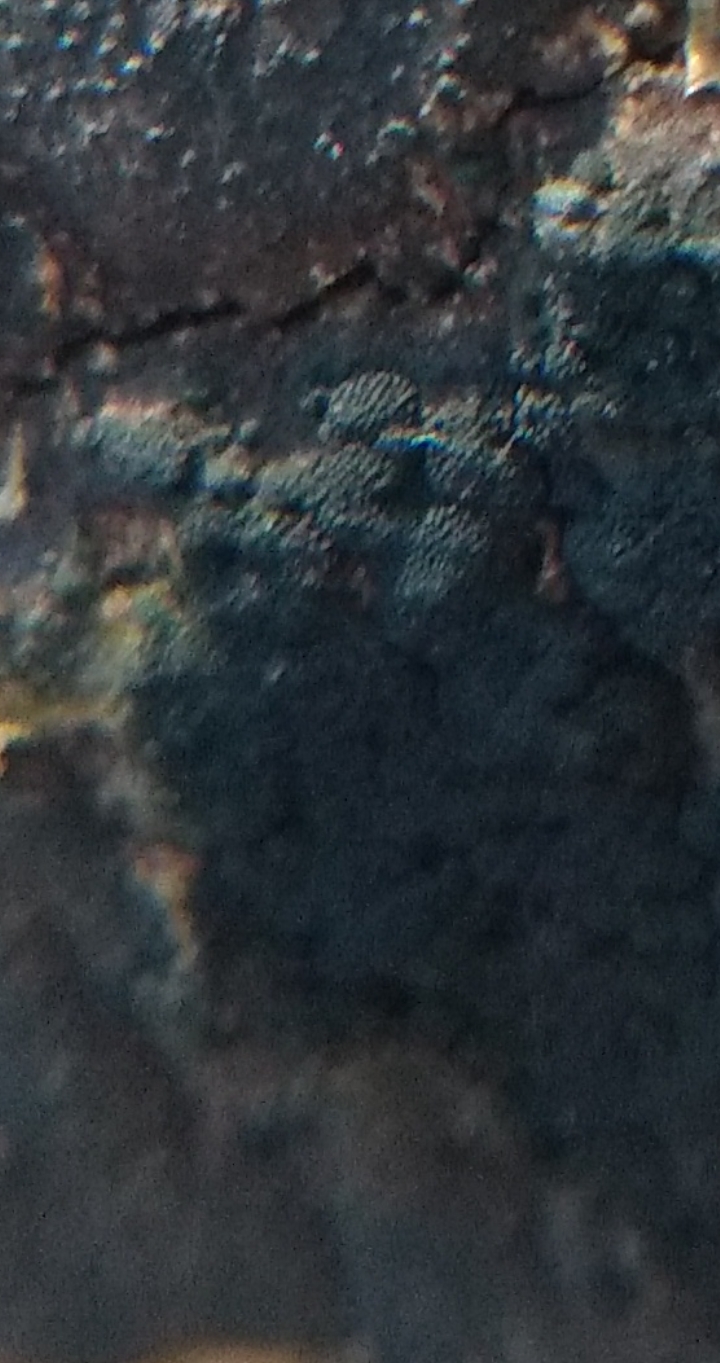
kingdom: Fungi
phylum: Ascomycota
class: Eurotiomycetes
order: Chaetothyriales
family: Herpotrichiellaceae
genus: Capronia
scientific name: Capronia nigerrima
